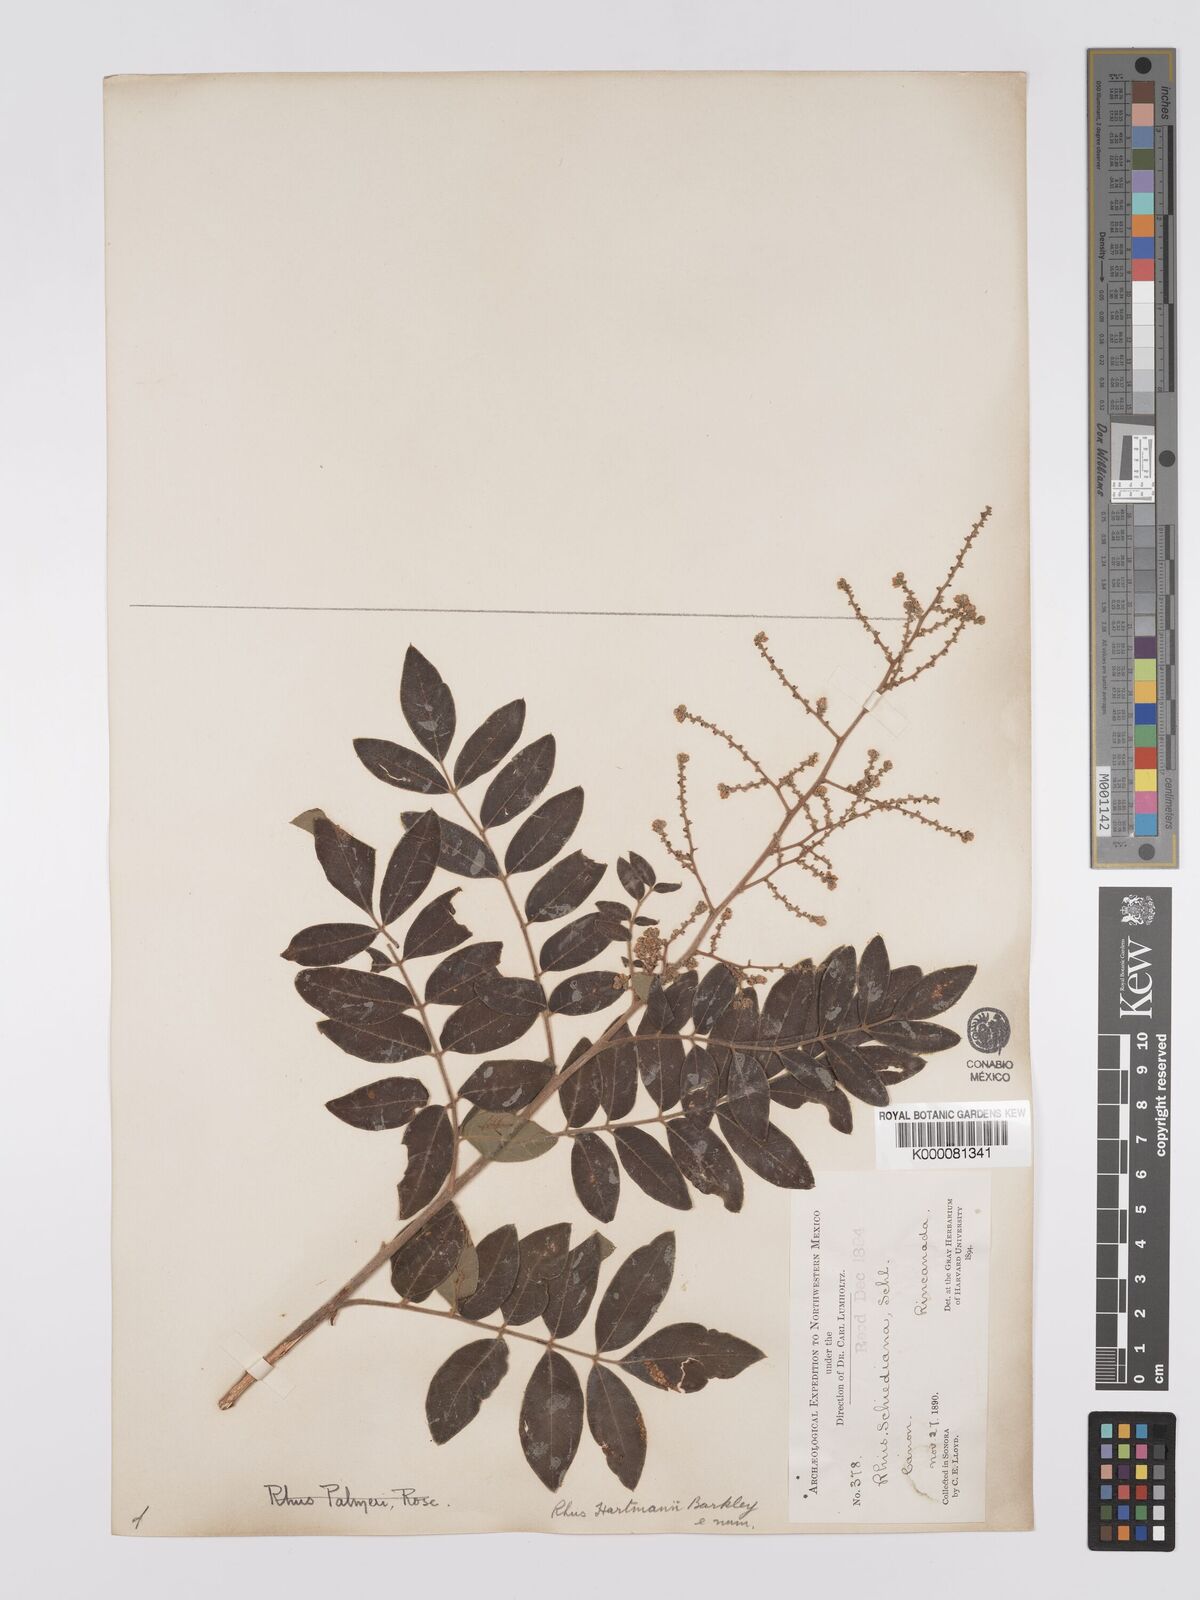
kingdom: Plantae
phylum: Tracheophyta
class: Magnoliopsida
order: Sapindales
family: Anacardiaceae
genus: Rhus
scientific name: Rhus schiedeana
